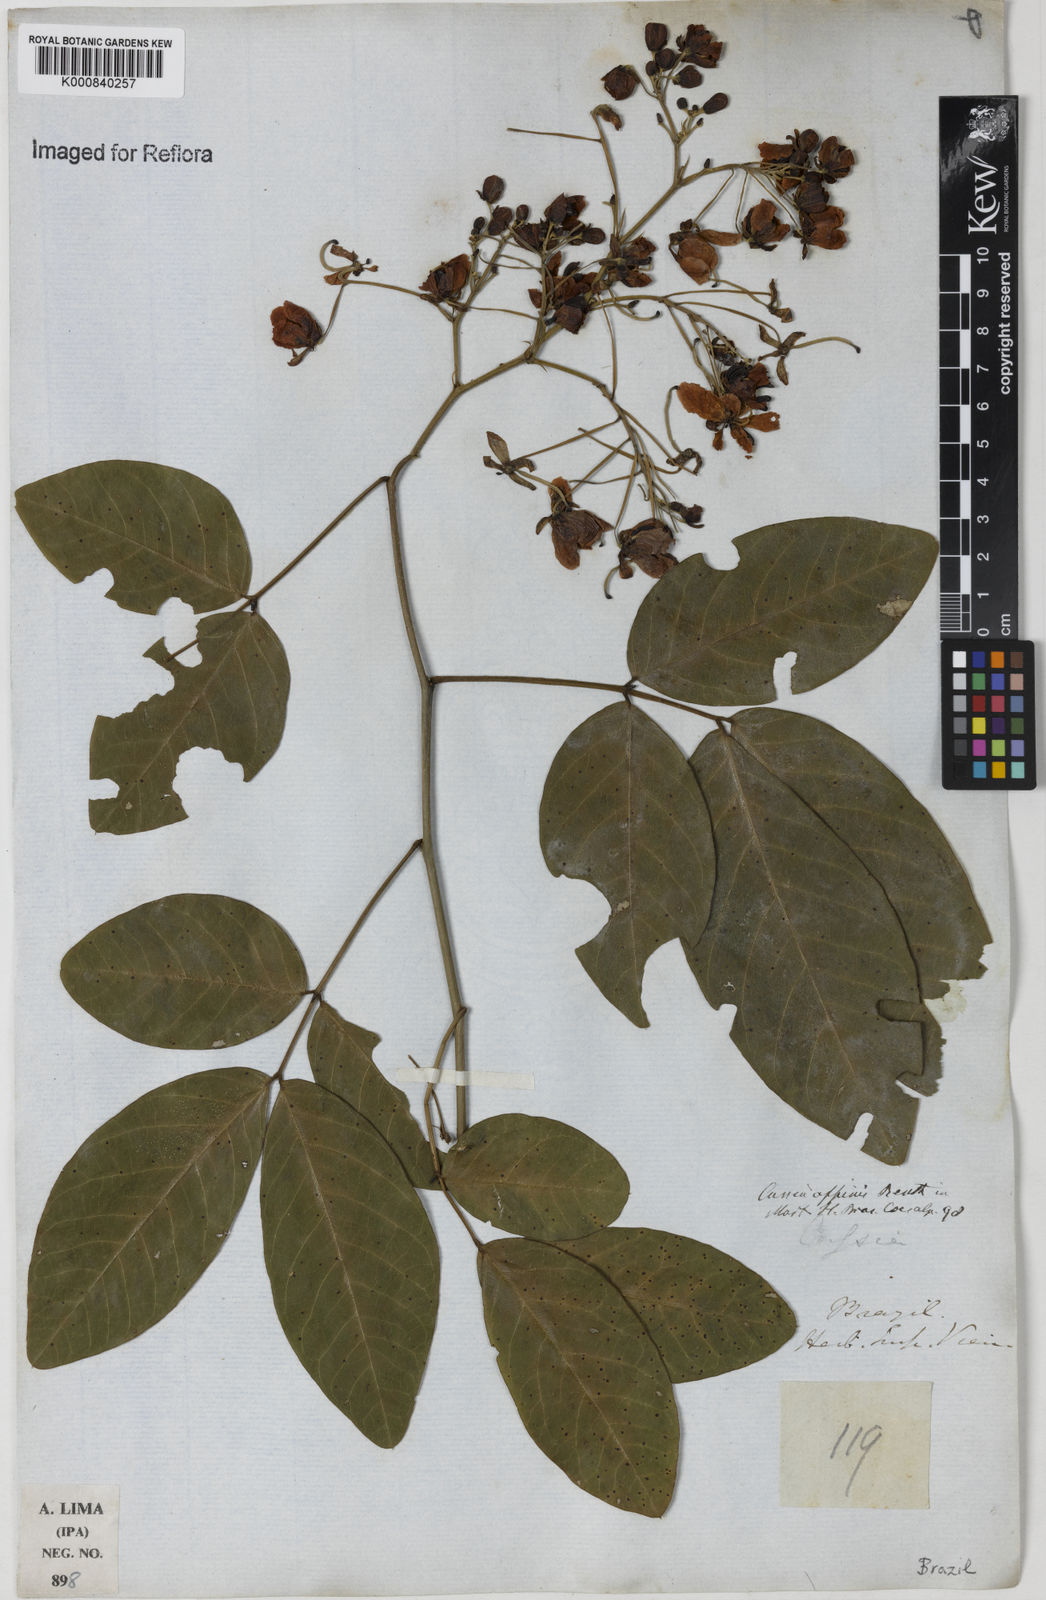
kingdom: Plantae
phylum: Tracheophyta
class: Magnoliopsida
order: Fabales
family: Fabaceae
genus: Senna
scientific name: Senna affinis
